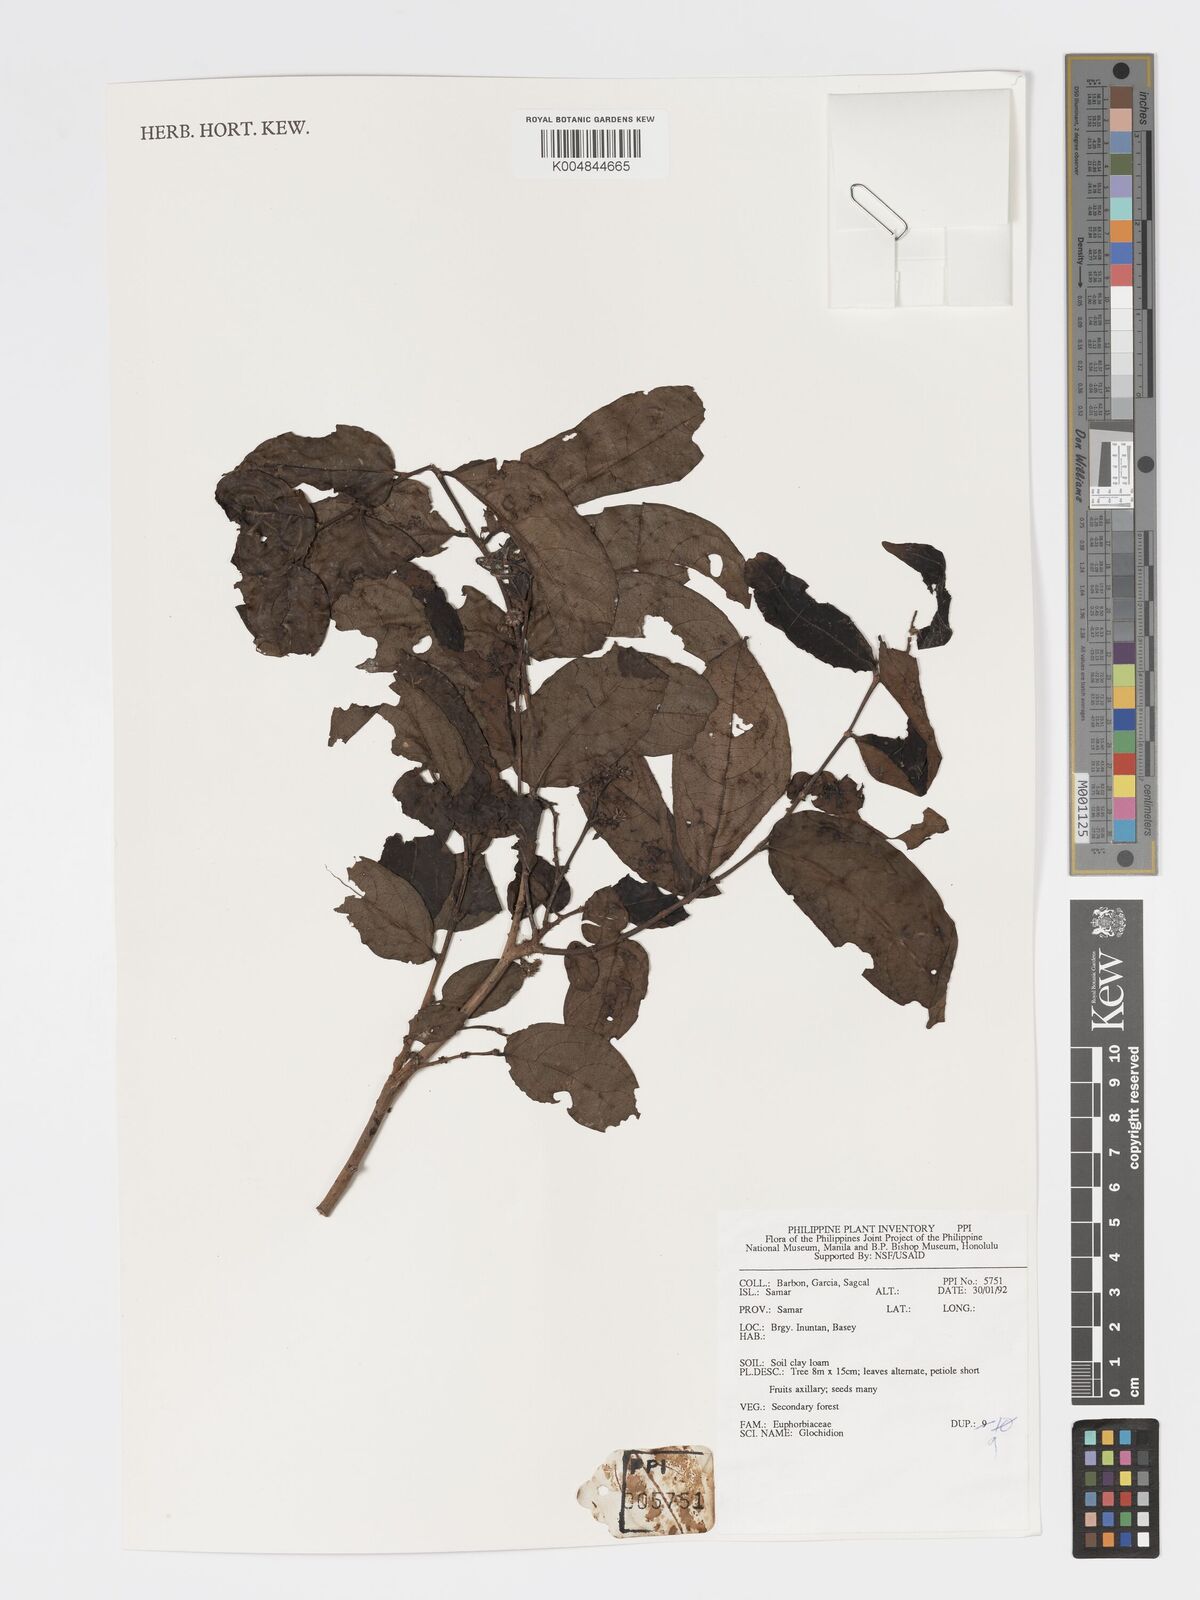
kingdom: Plantae
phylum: Tracheophyta
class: Magnoliopsida
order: Malpighiales
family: Phyllanthaceae
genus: Glochidion
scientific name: Glochidion
